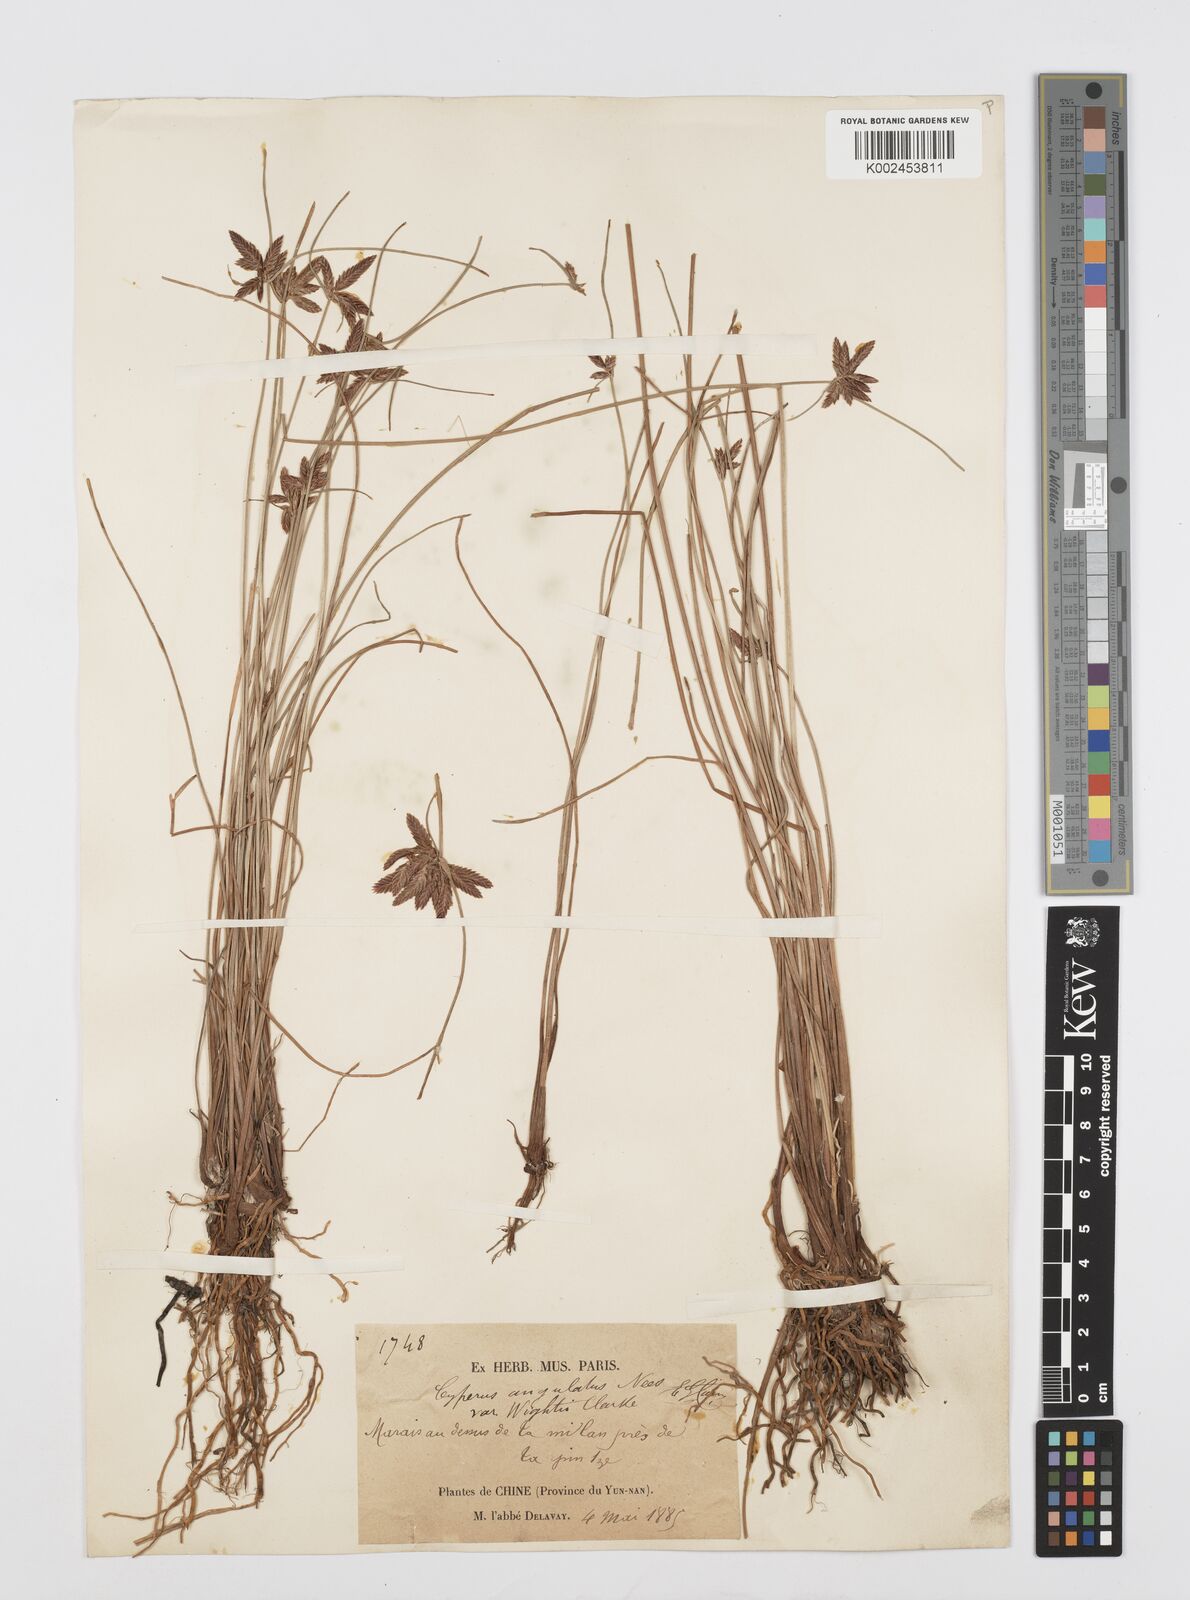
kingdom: Plantae
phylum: Tracheophyta
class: Liliopsida
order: Poales
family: Cyperaceae
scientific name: Cyperaceae
